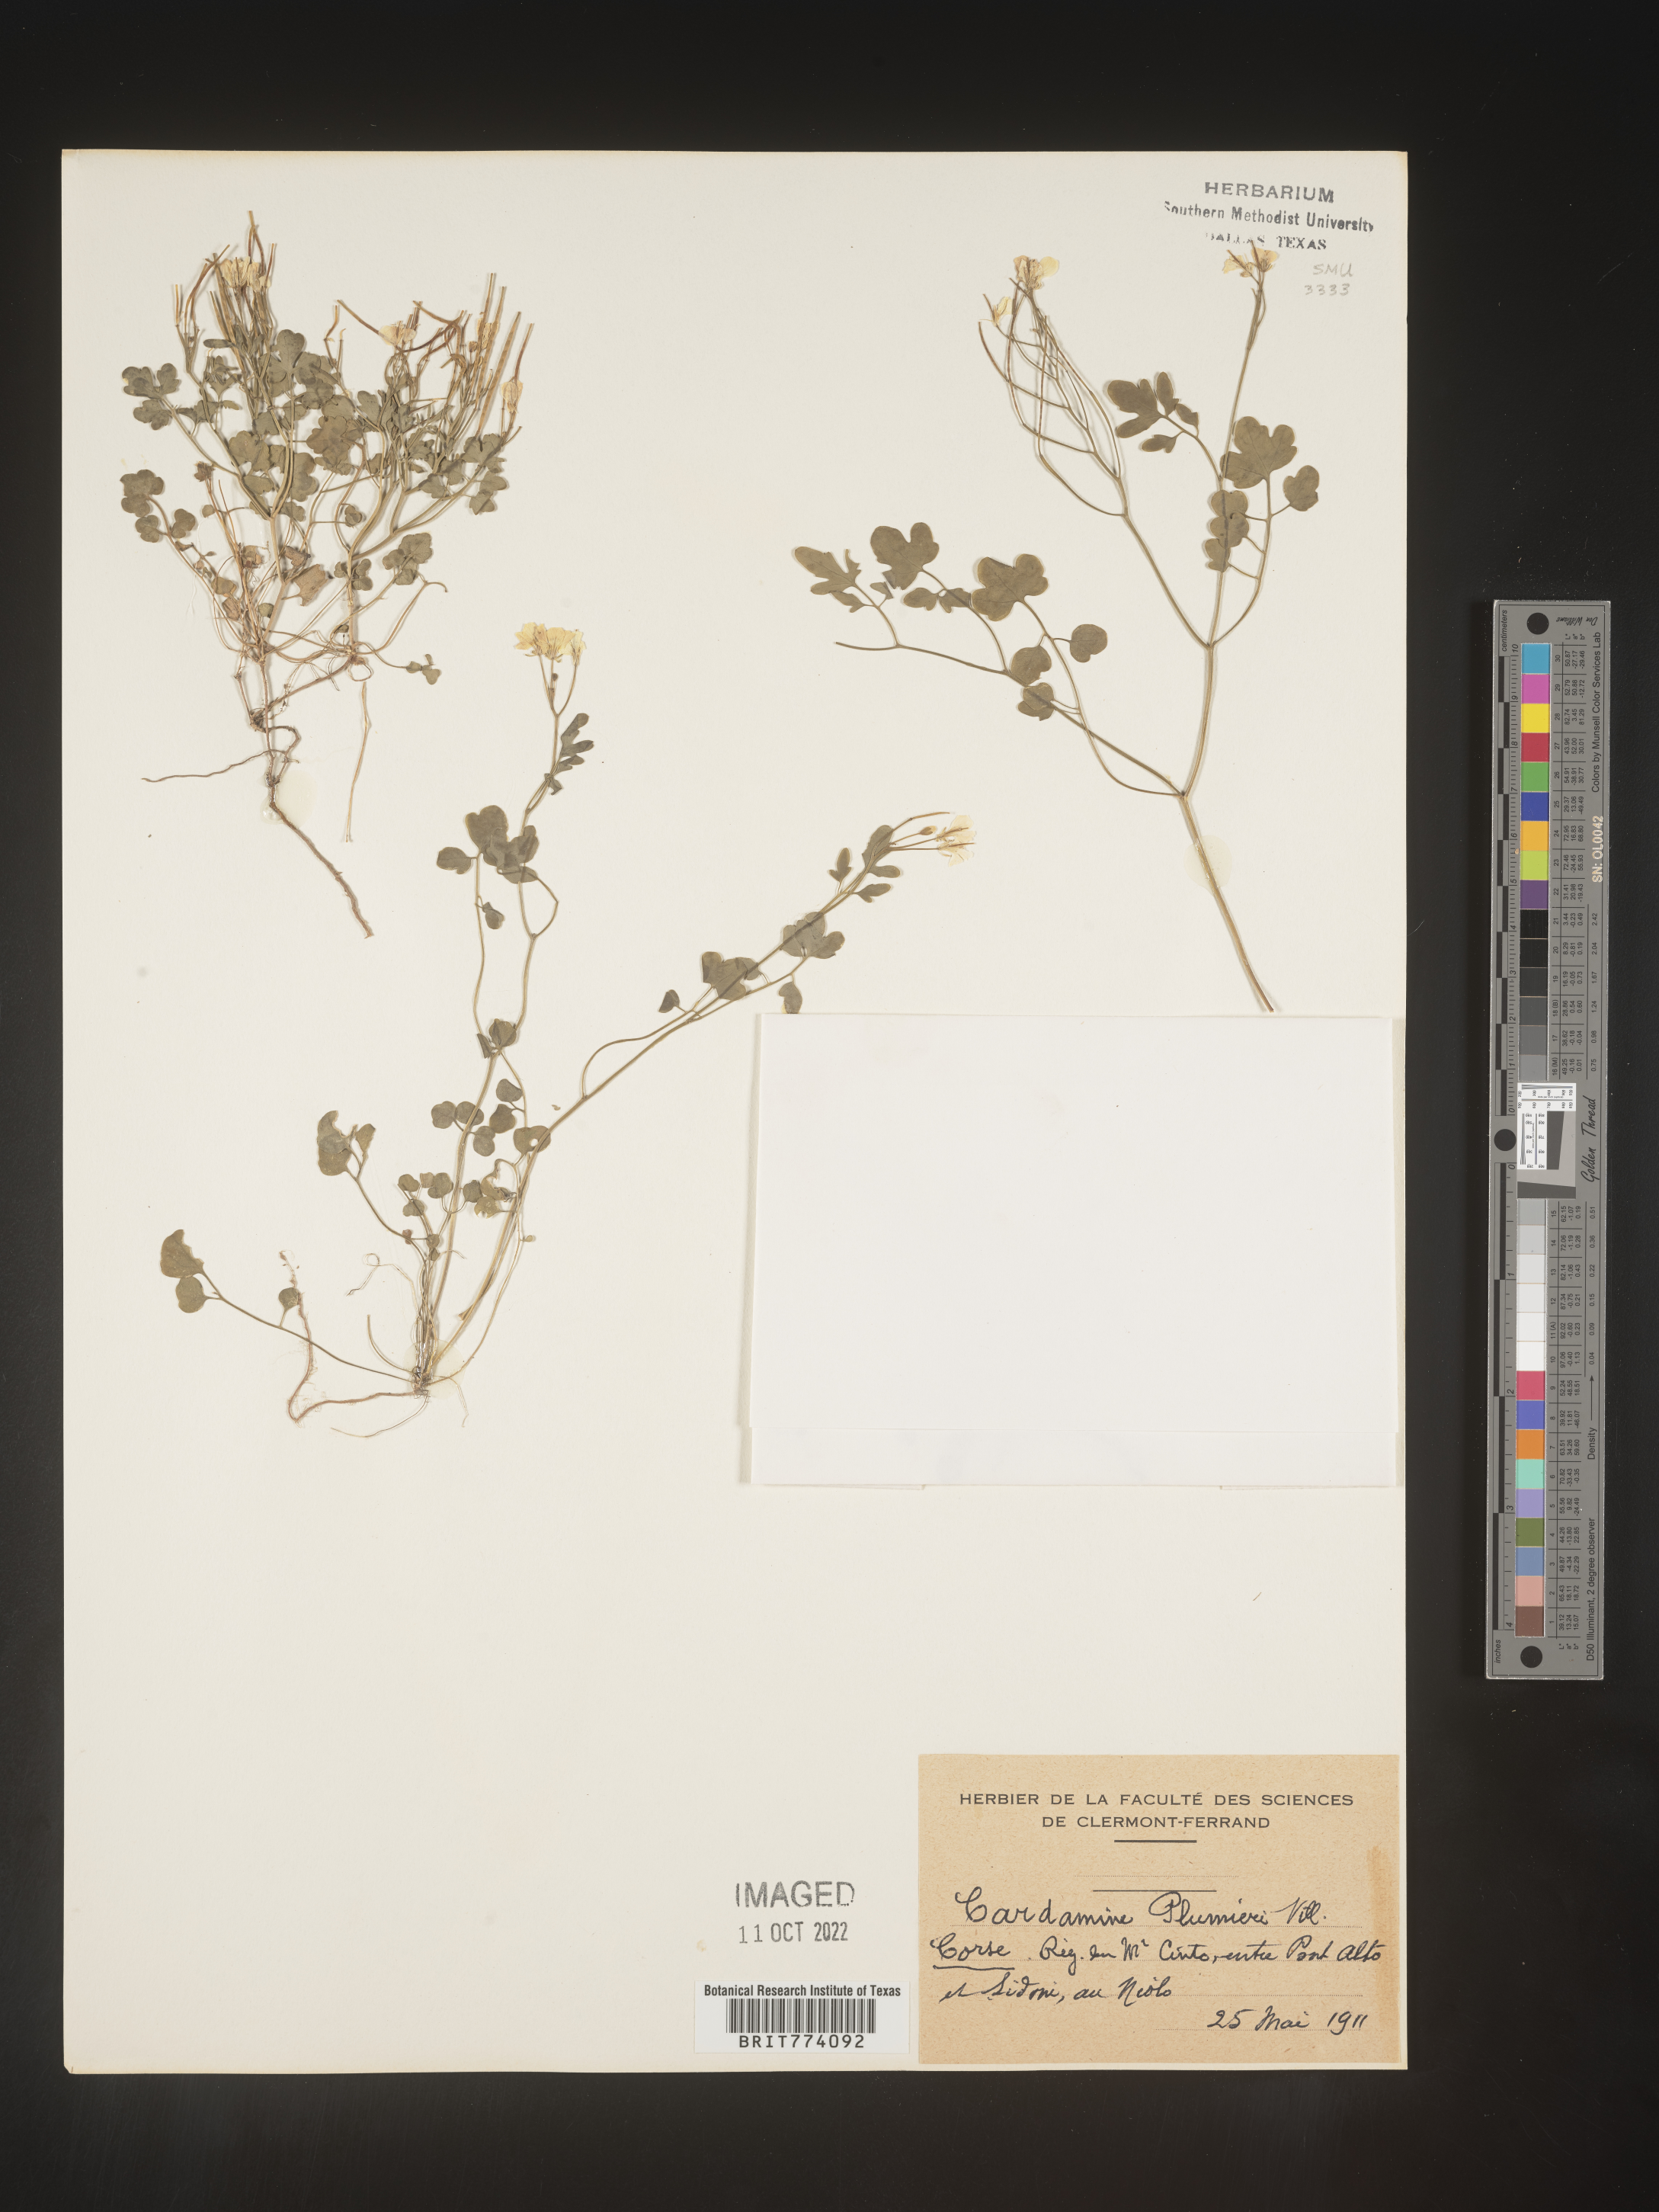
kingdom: Plantae
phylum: Tracheophyta
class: Magnoliopsida
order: Brassicales
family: Brassicaceae
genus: Cardamine
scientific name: Cardamine
